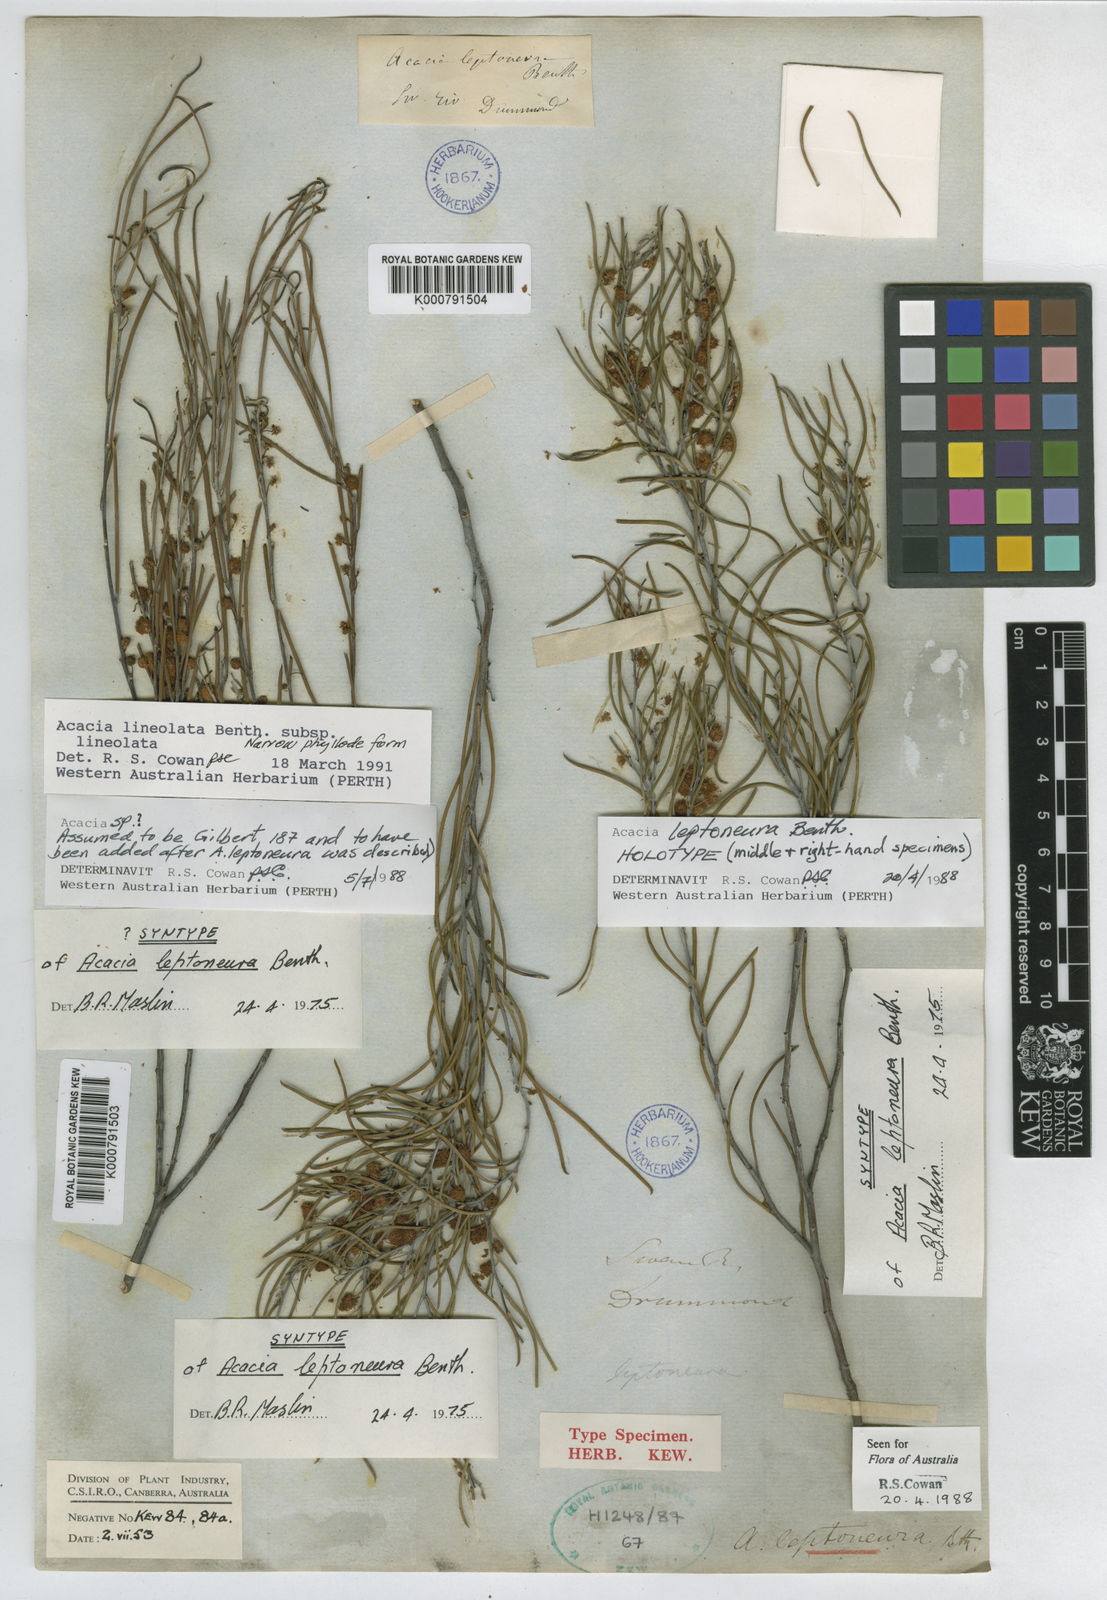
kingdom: Plantae
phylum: Tracheophyta
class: Magnoliopsida
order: Fabales
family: Fabaceae
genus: Acacia
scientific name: Acacia leptoneura
